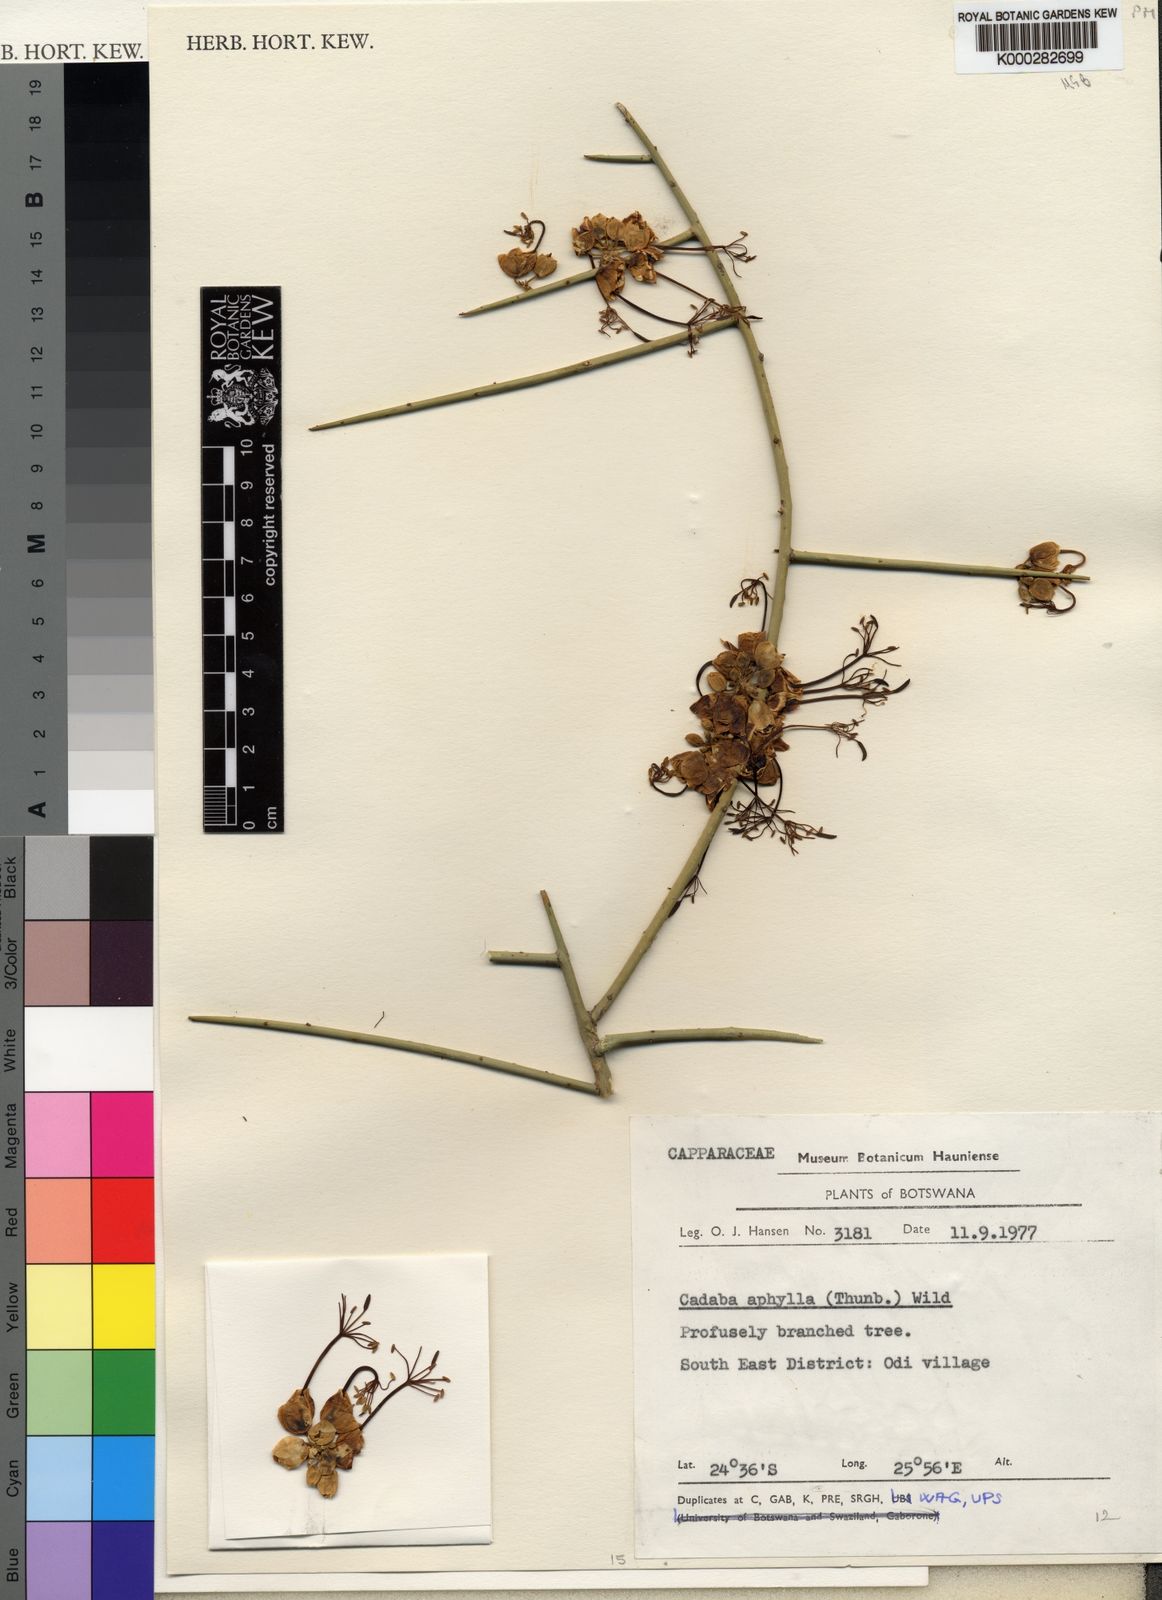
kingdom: Plantae
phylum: Tracheophyta
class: Magnoliopsida
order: Brassicales
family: Capparaceae
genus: Cadaba
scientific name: Cadaba aphylla
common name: Black storm
